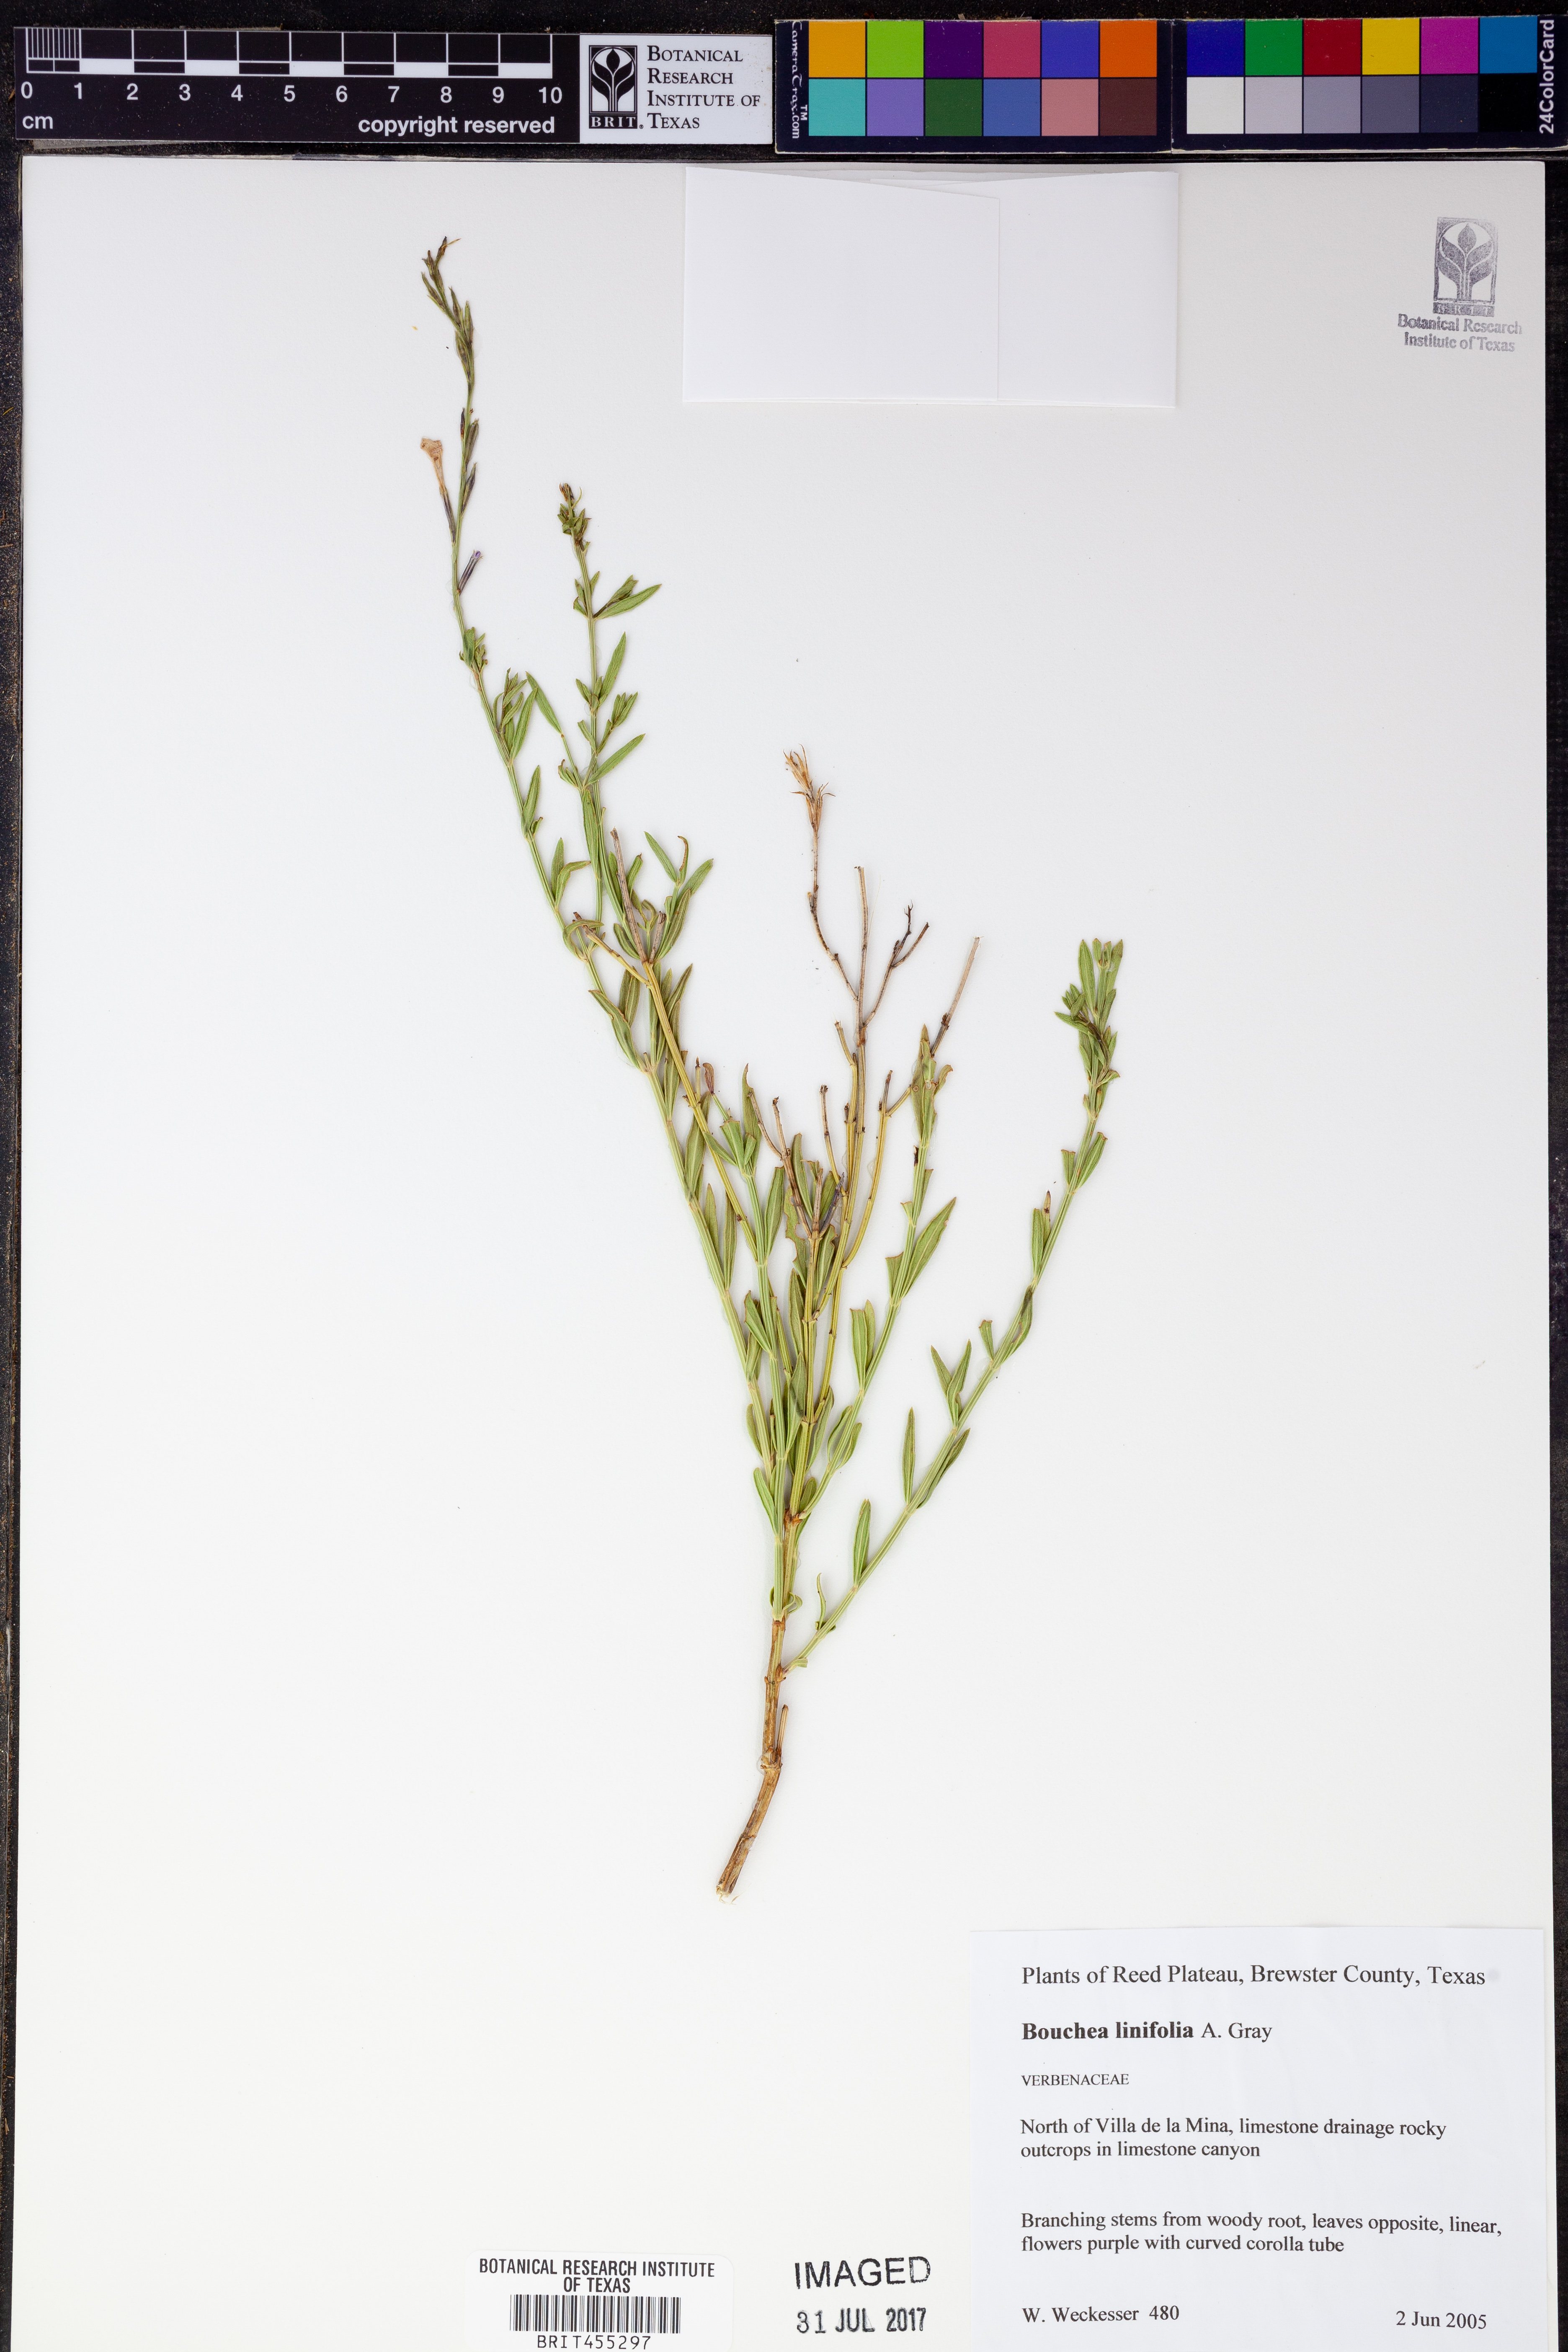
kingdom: Plantae
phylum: Tracheophyta
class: Magnoliopsida
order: Lamiales
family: Verbenaceae
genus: Bouchea
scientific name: Bouchea linifolia
